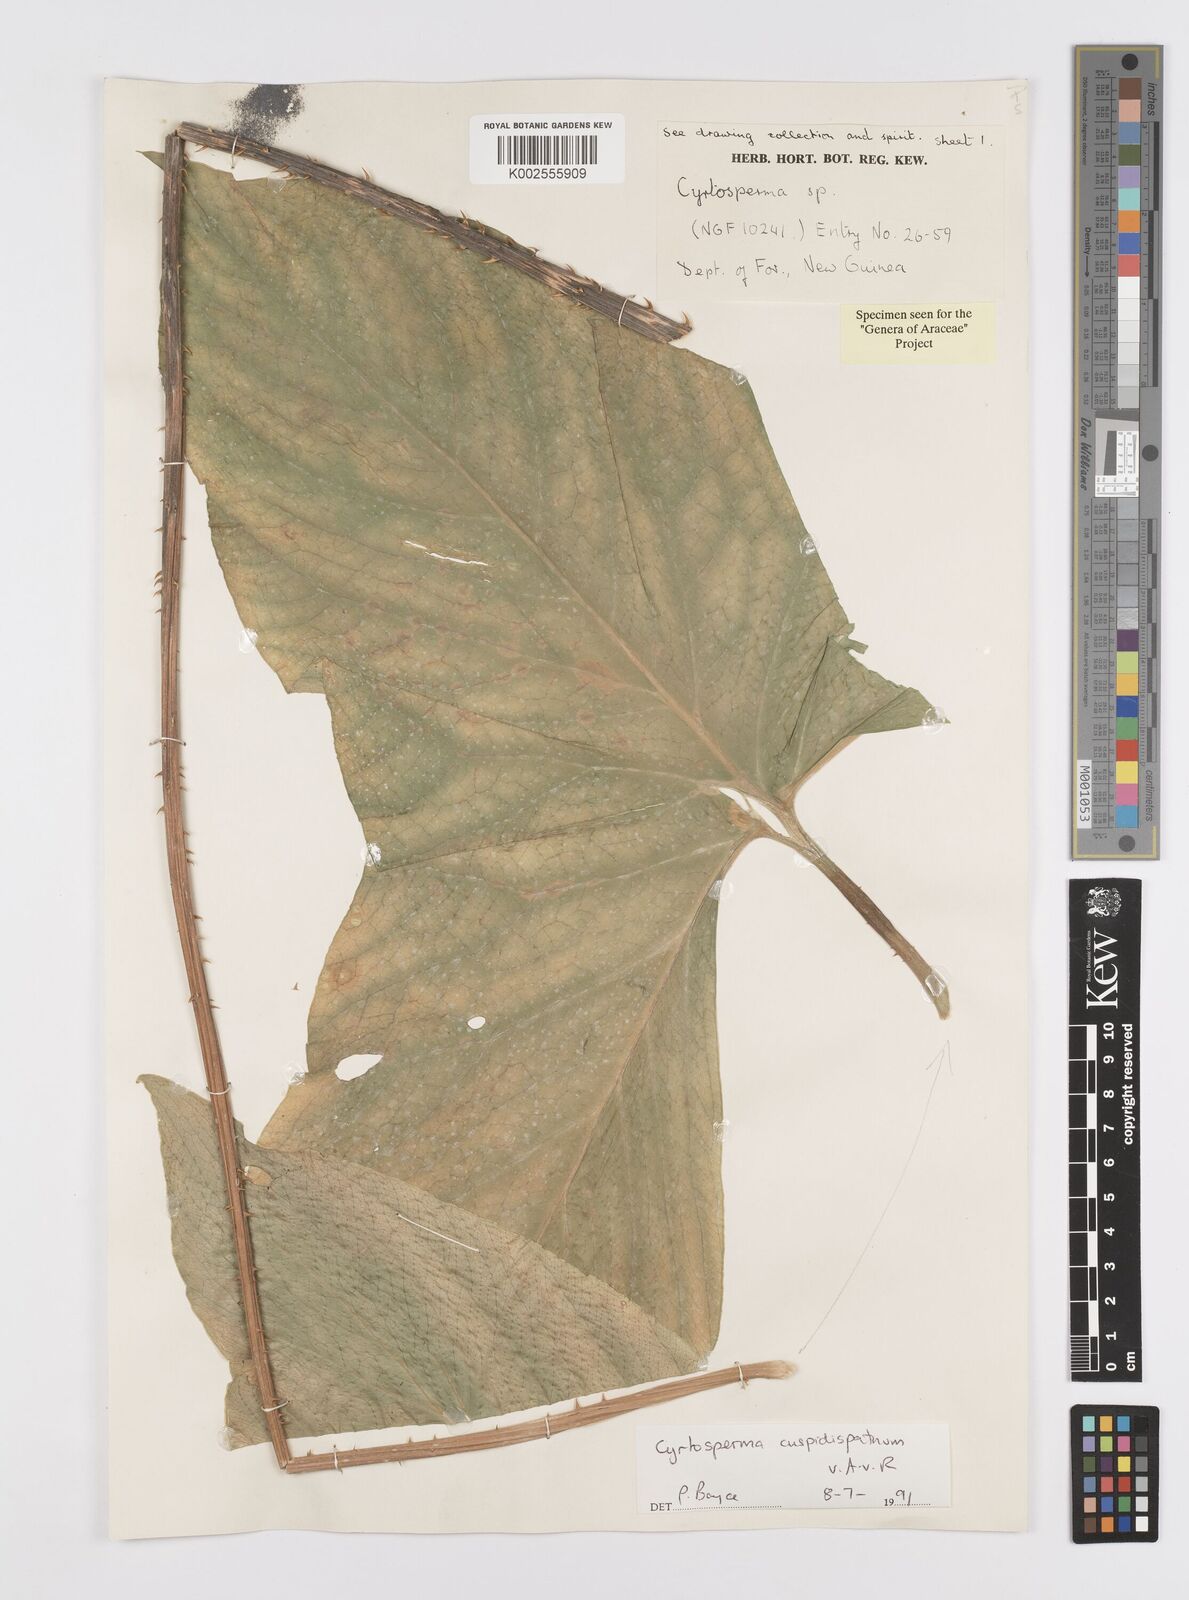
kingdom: Plantae
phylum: Tracheophyta
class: Liliopsida
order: Alismatales
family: Araceae
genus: Cyrtosperma
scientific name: Cyrtosperma cuspidispathum
